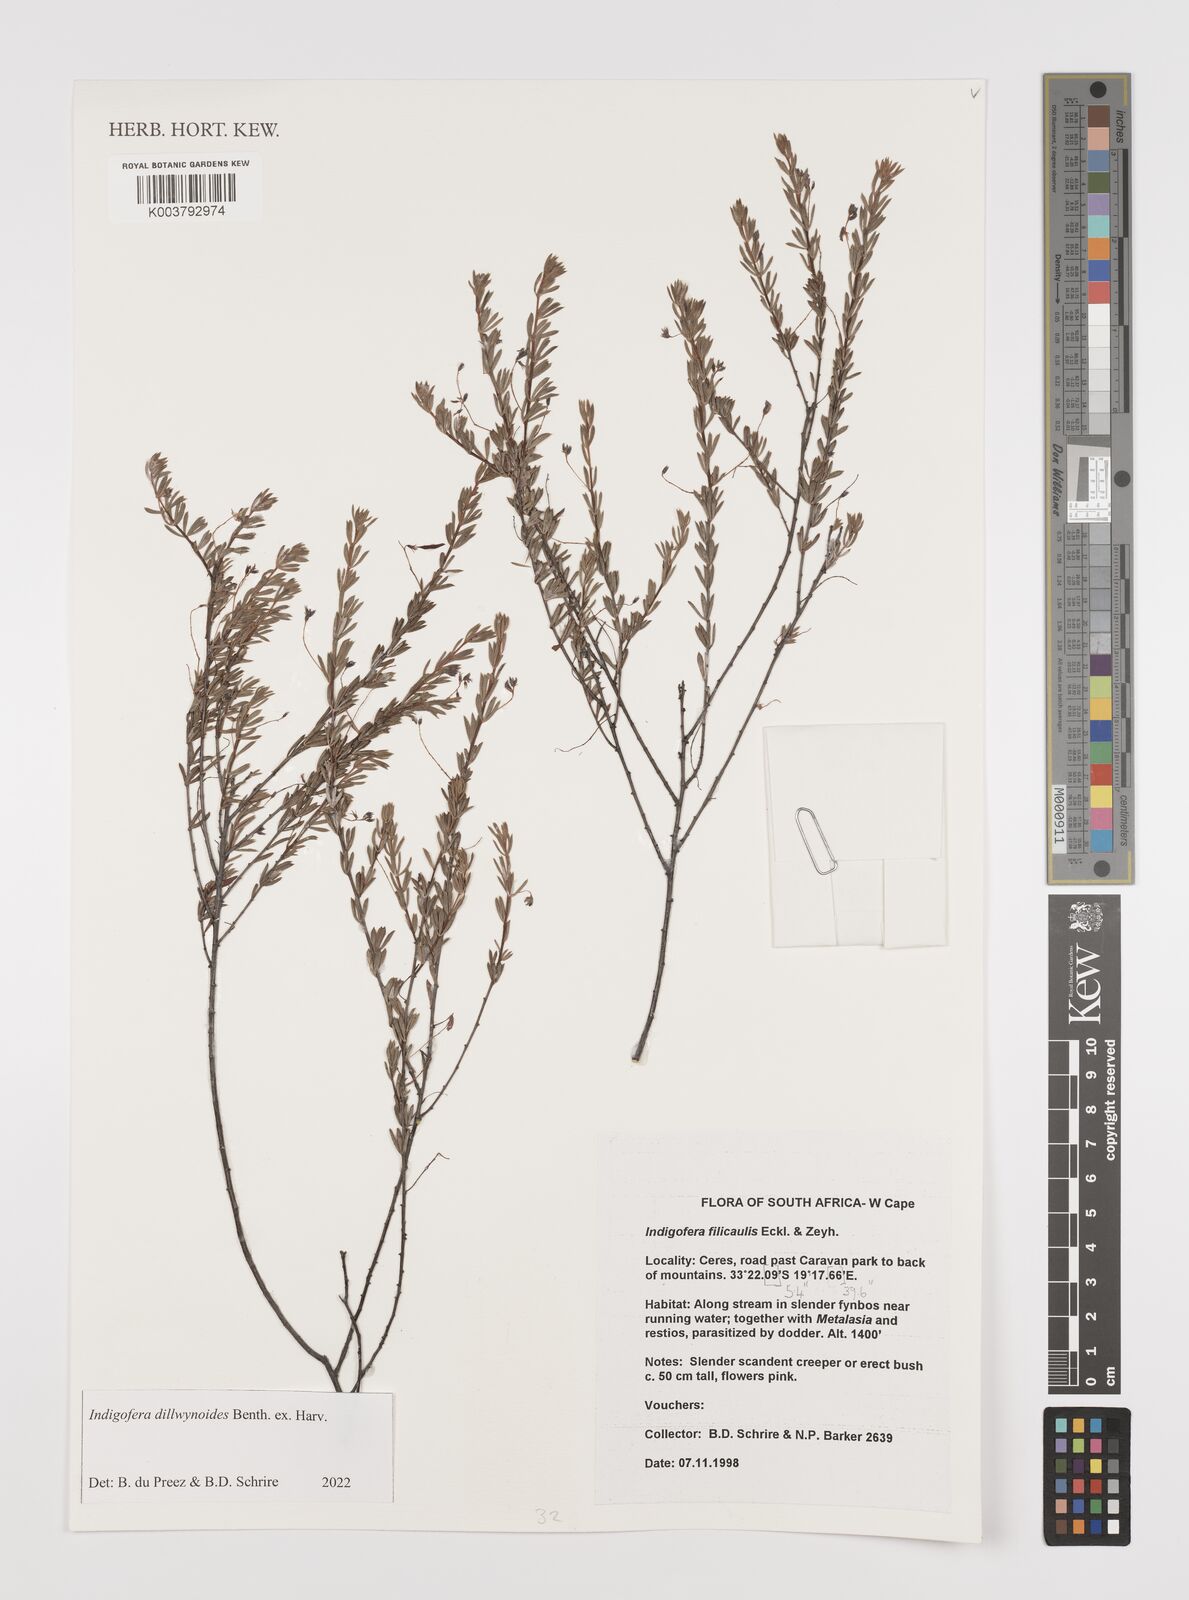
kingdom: Plantae
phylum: Tracheophyta
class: Magnoliopsida
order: Fabales
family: Fabaceae
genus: Indigofera
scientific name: Indigofera dillwynioides
